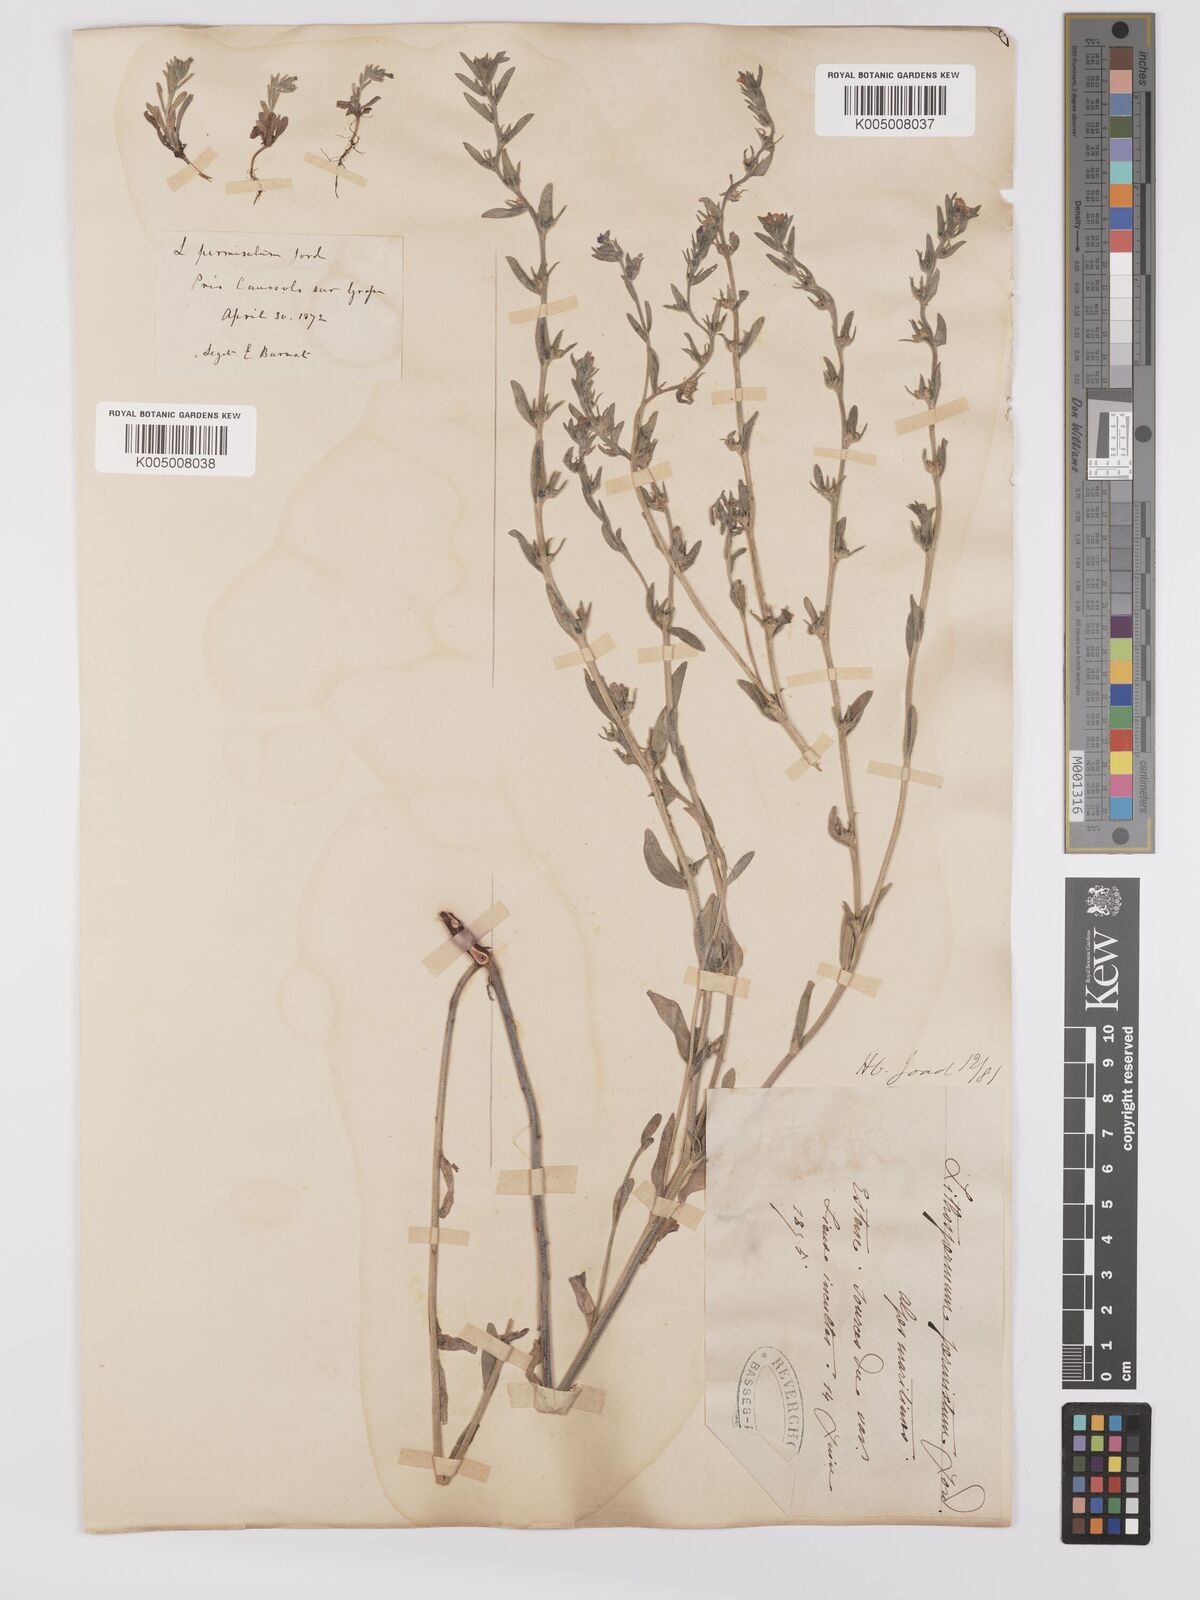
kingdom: Plantae
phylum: Tracheophyta
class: Magnoliopsida
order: Boraginales
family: Boraginaceae
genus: Buglossoides
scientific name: Buglossoides incrassata
